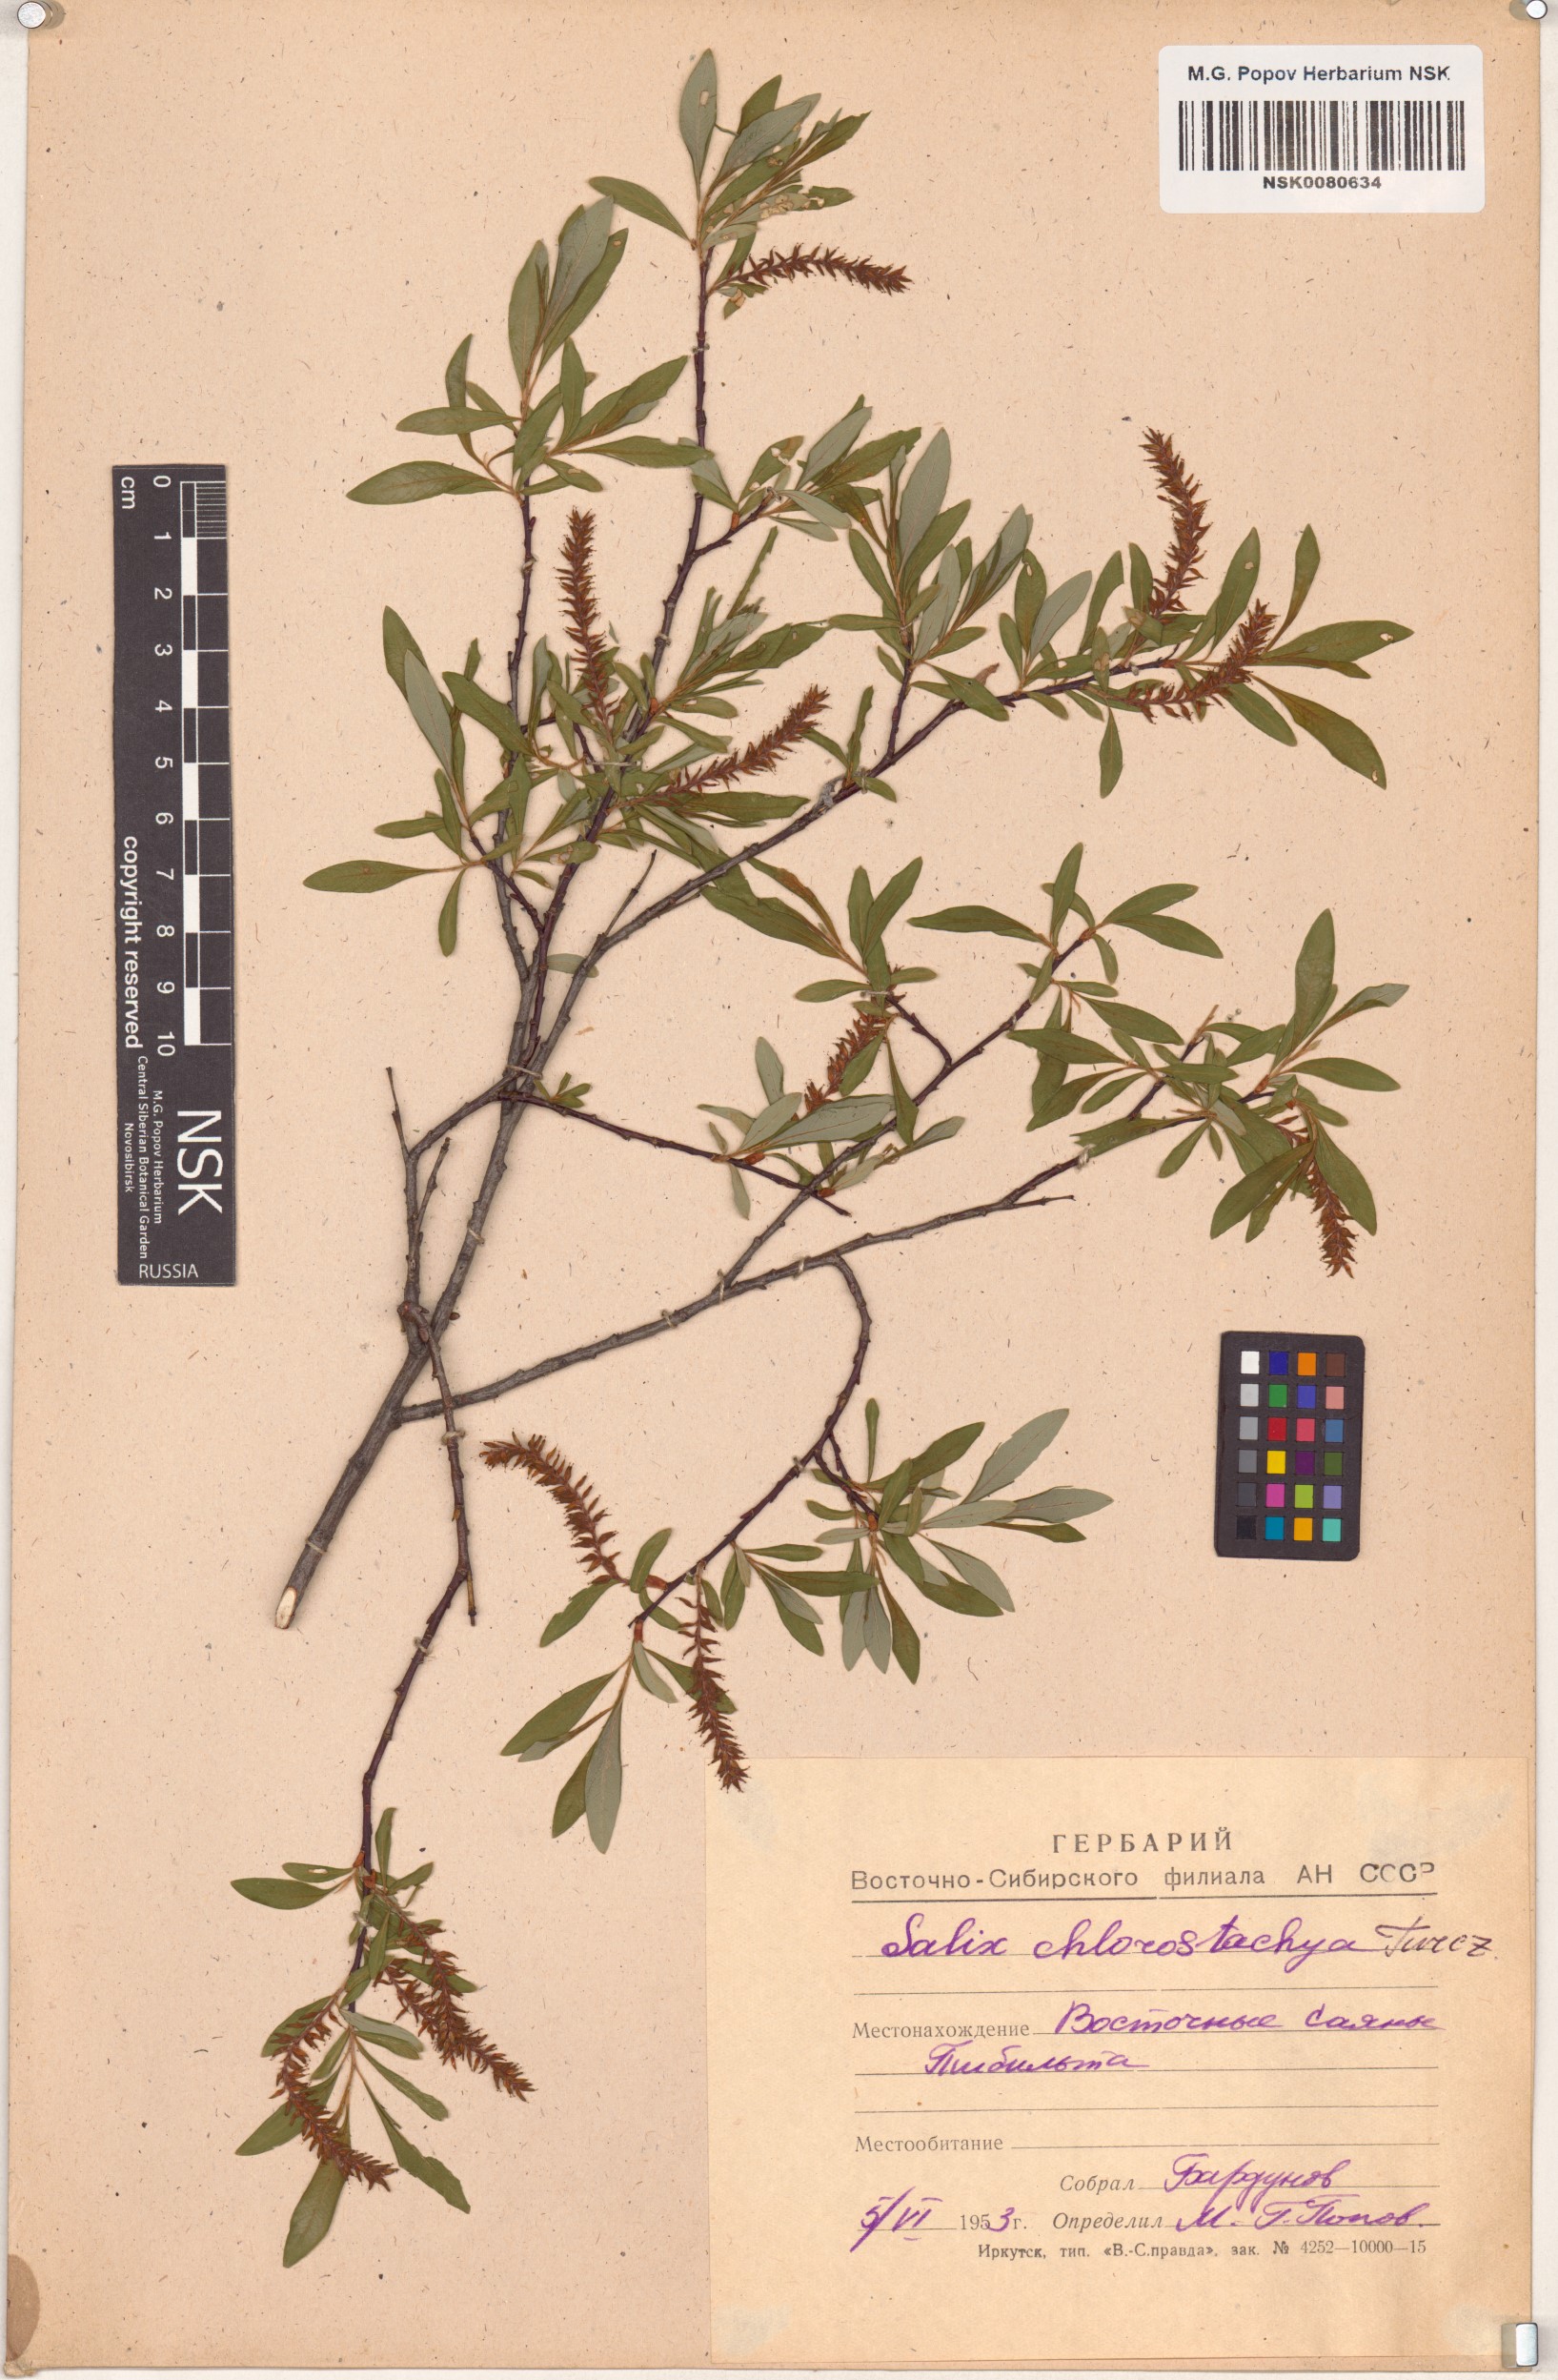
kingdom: Plantae
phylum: Tracheophyta
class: Magnoliopsida
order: Malpighiales
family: Salicaceae
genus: Salix
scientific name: Salix rhamnifolia
